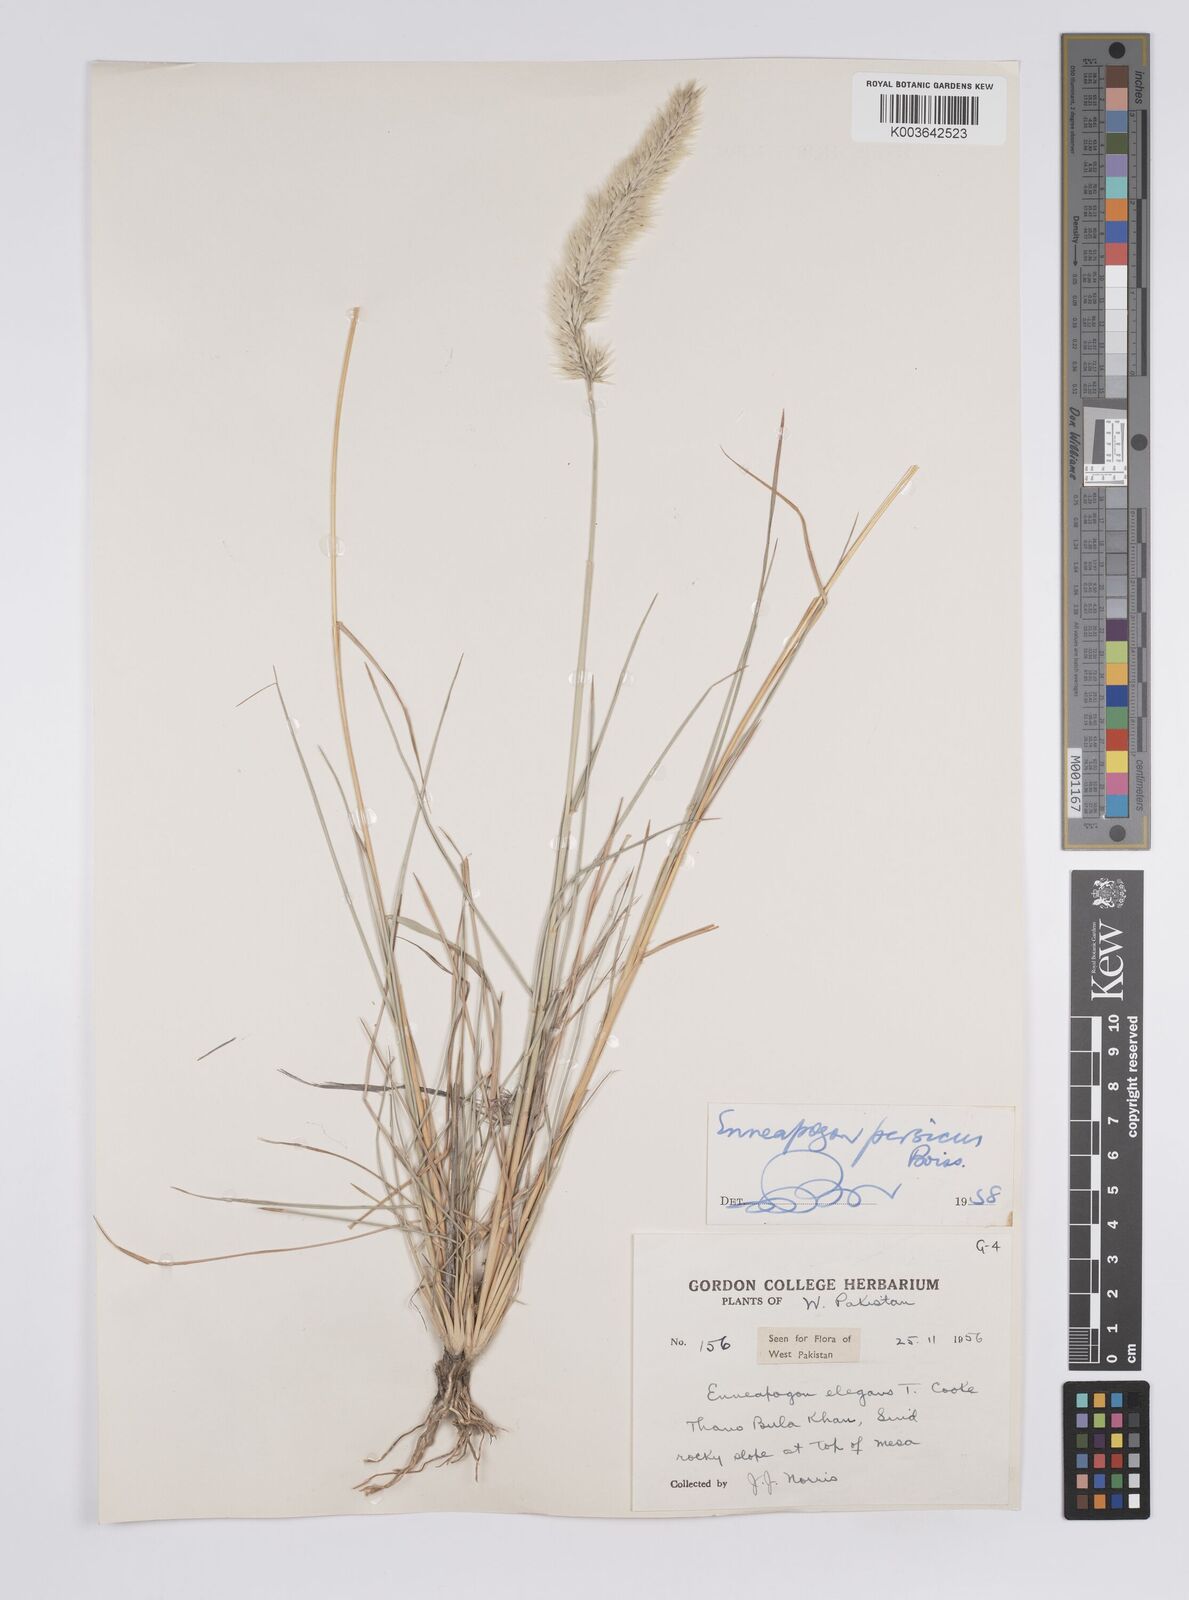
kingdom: Plantae
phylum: Tracheophyta
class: Liliopsida
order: Poales
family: Poaceae
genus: Enneapogon
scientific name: Enneapogon persicus
